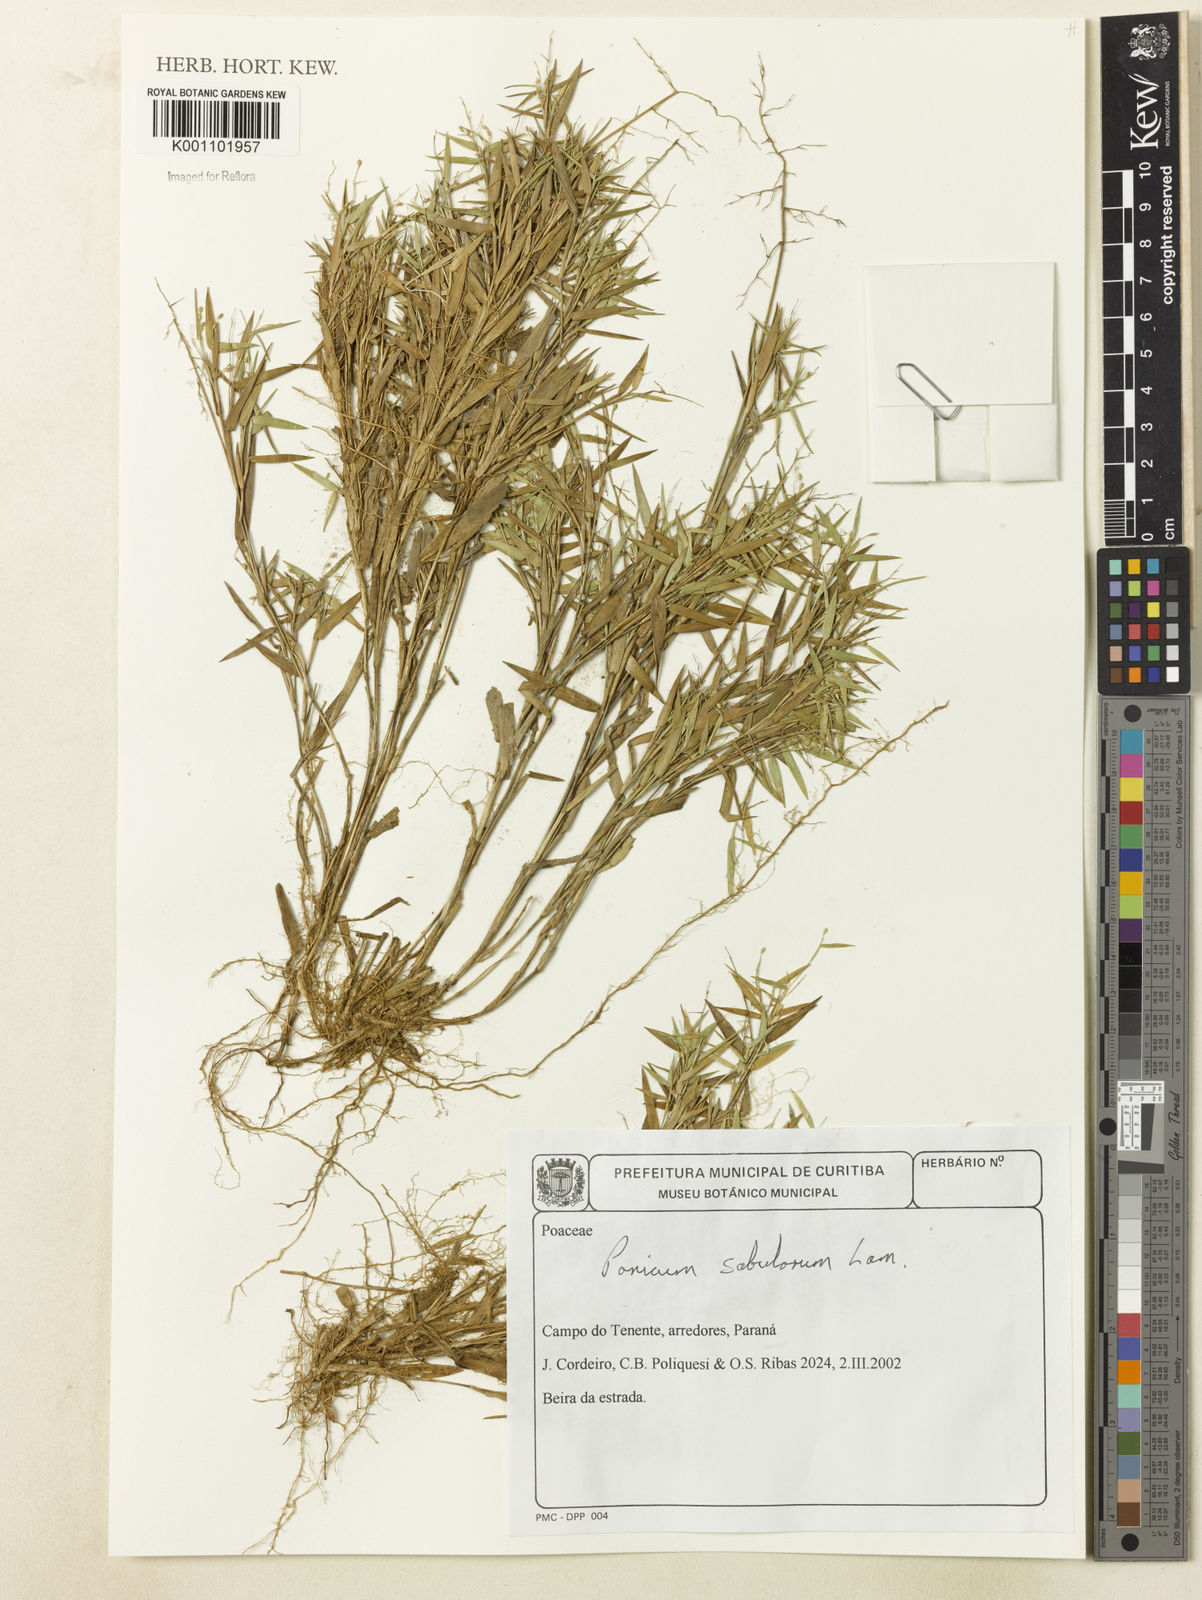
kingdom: Plantae
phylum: Tracheophyta
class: Liliopsida
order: Poales
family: Poaceae
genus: Dichanthelium
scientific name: Dichanthelium sabulorum
